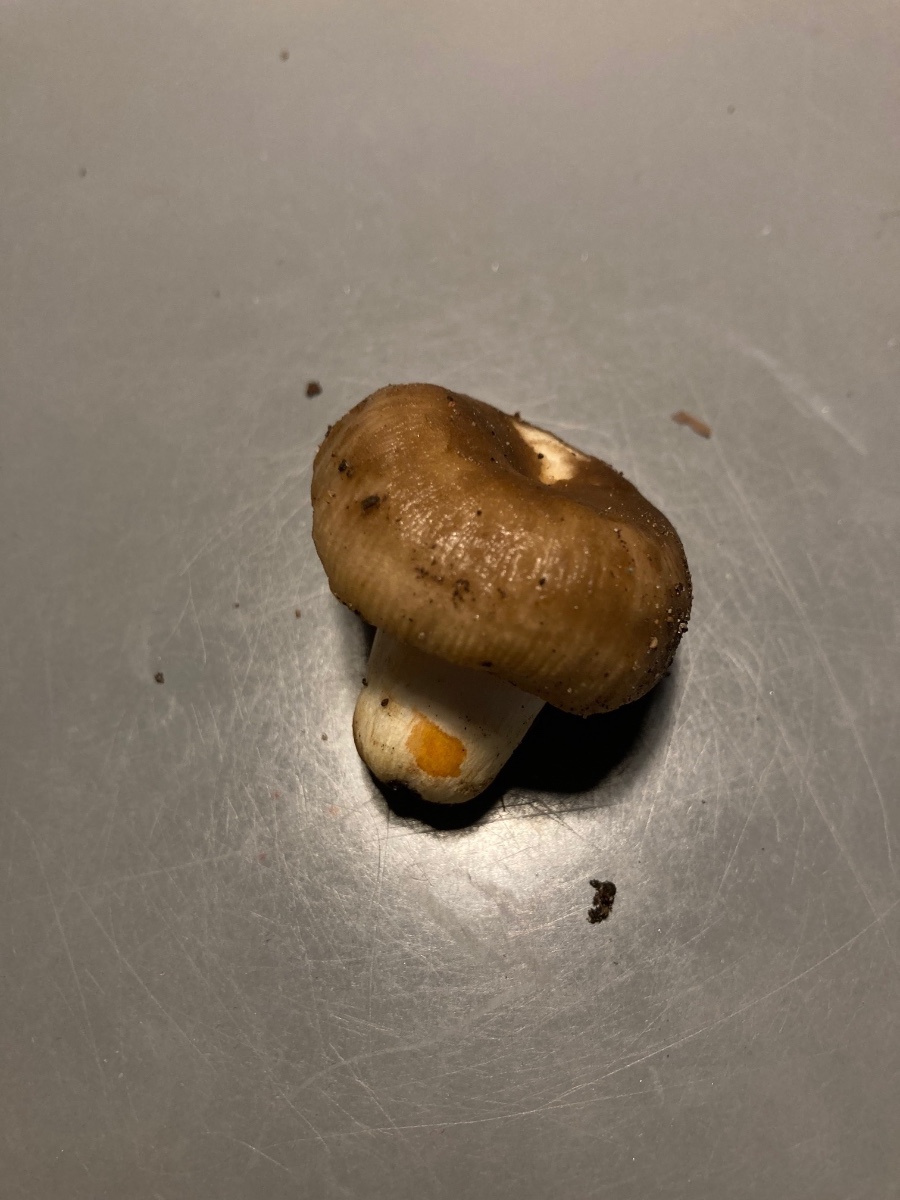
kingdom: Fungi
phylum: Basidiomycota
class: Agaricomycetes
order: Russulales
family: Russulaceae
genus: Russula
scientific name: Russula insignis
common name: gulfodet kam-skørhat
